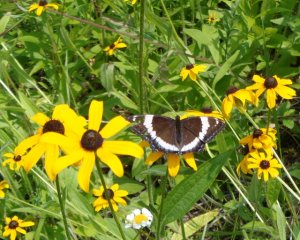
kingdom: Animalia
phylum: Arthropoda
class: Insecta
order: Lepidoptera
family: Nymphalidae
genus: Limenitis
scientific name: Limenitis arthemis
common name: Red-spotted Admiral
